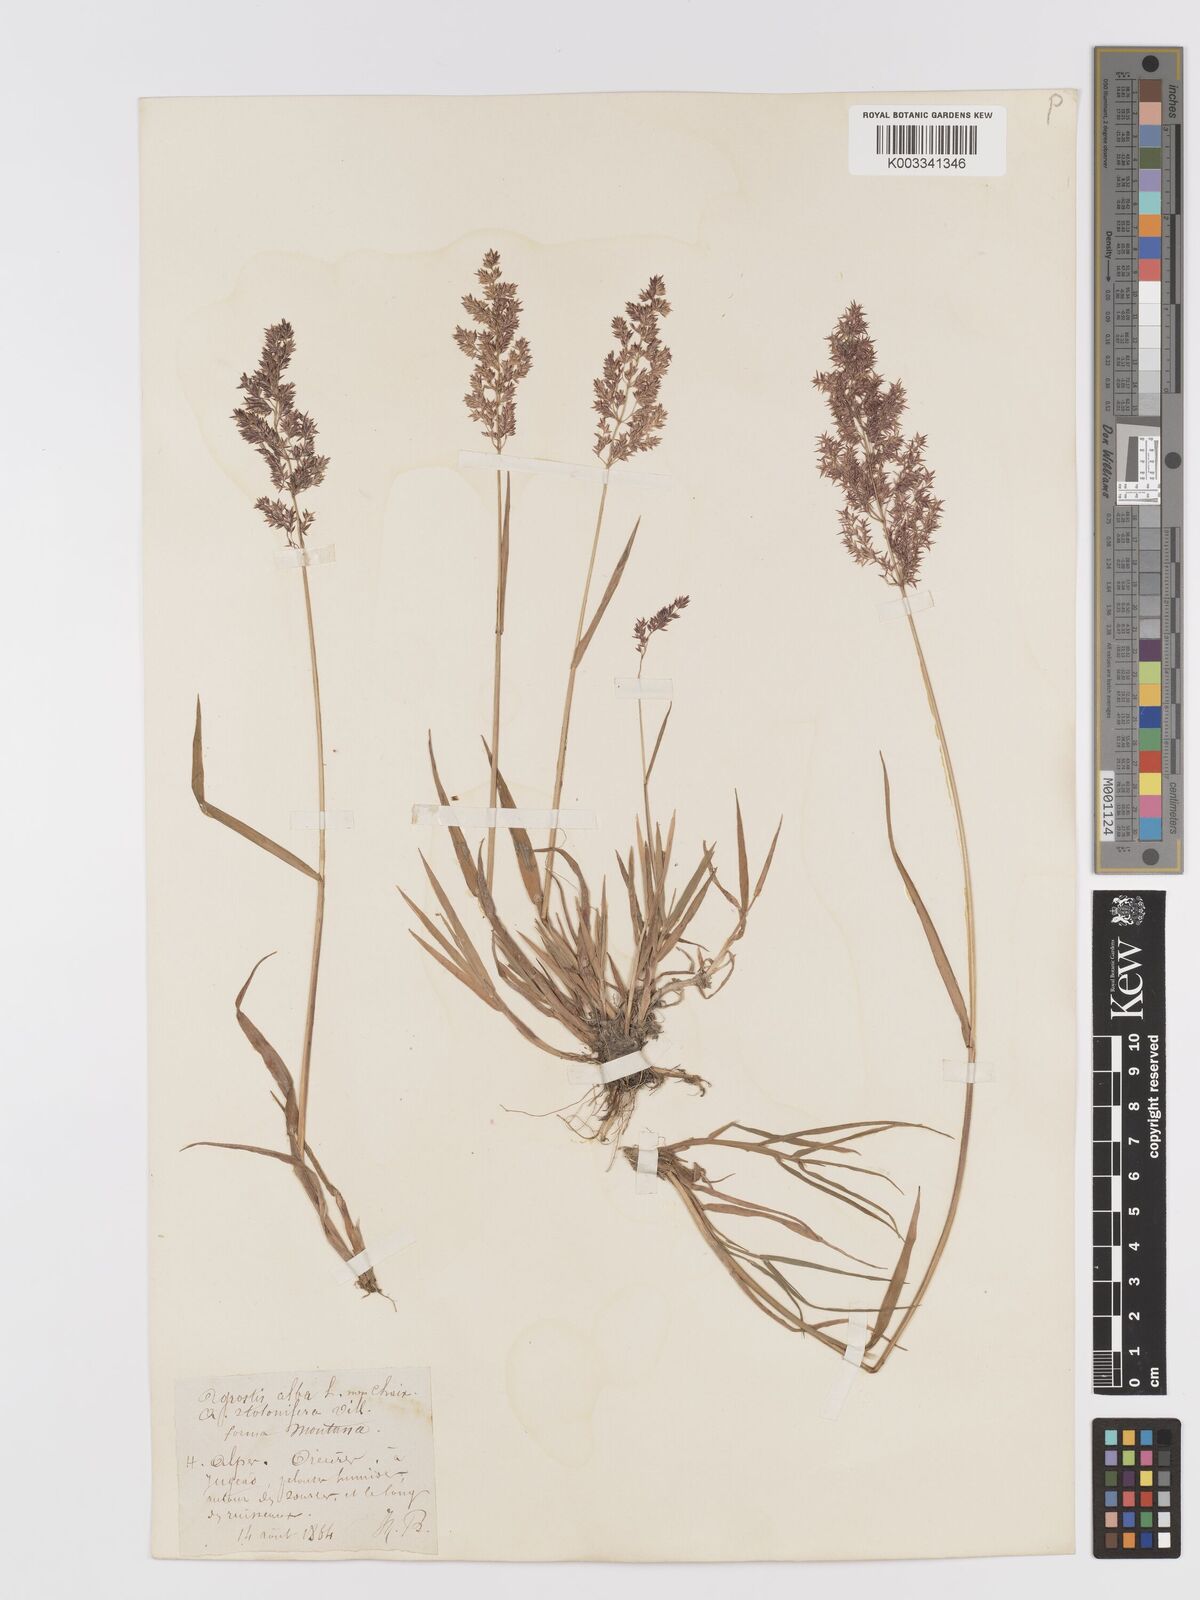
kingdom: Plantae
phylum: Tracheophyta
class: Liliopsida
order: Poales
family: Poaceae
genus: Agrostis
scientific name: Agrostis gigantea
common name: Black bent
